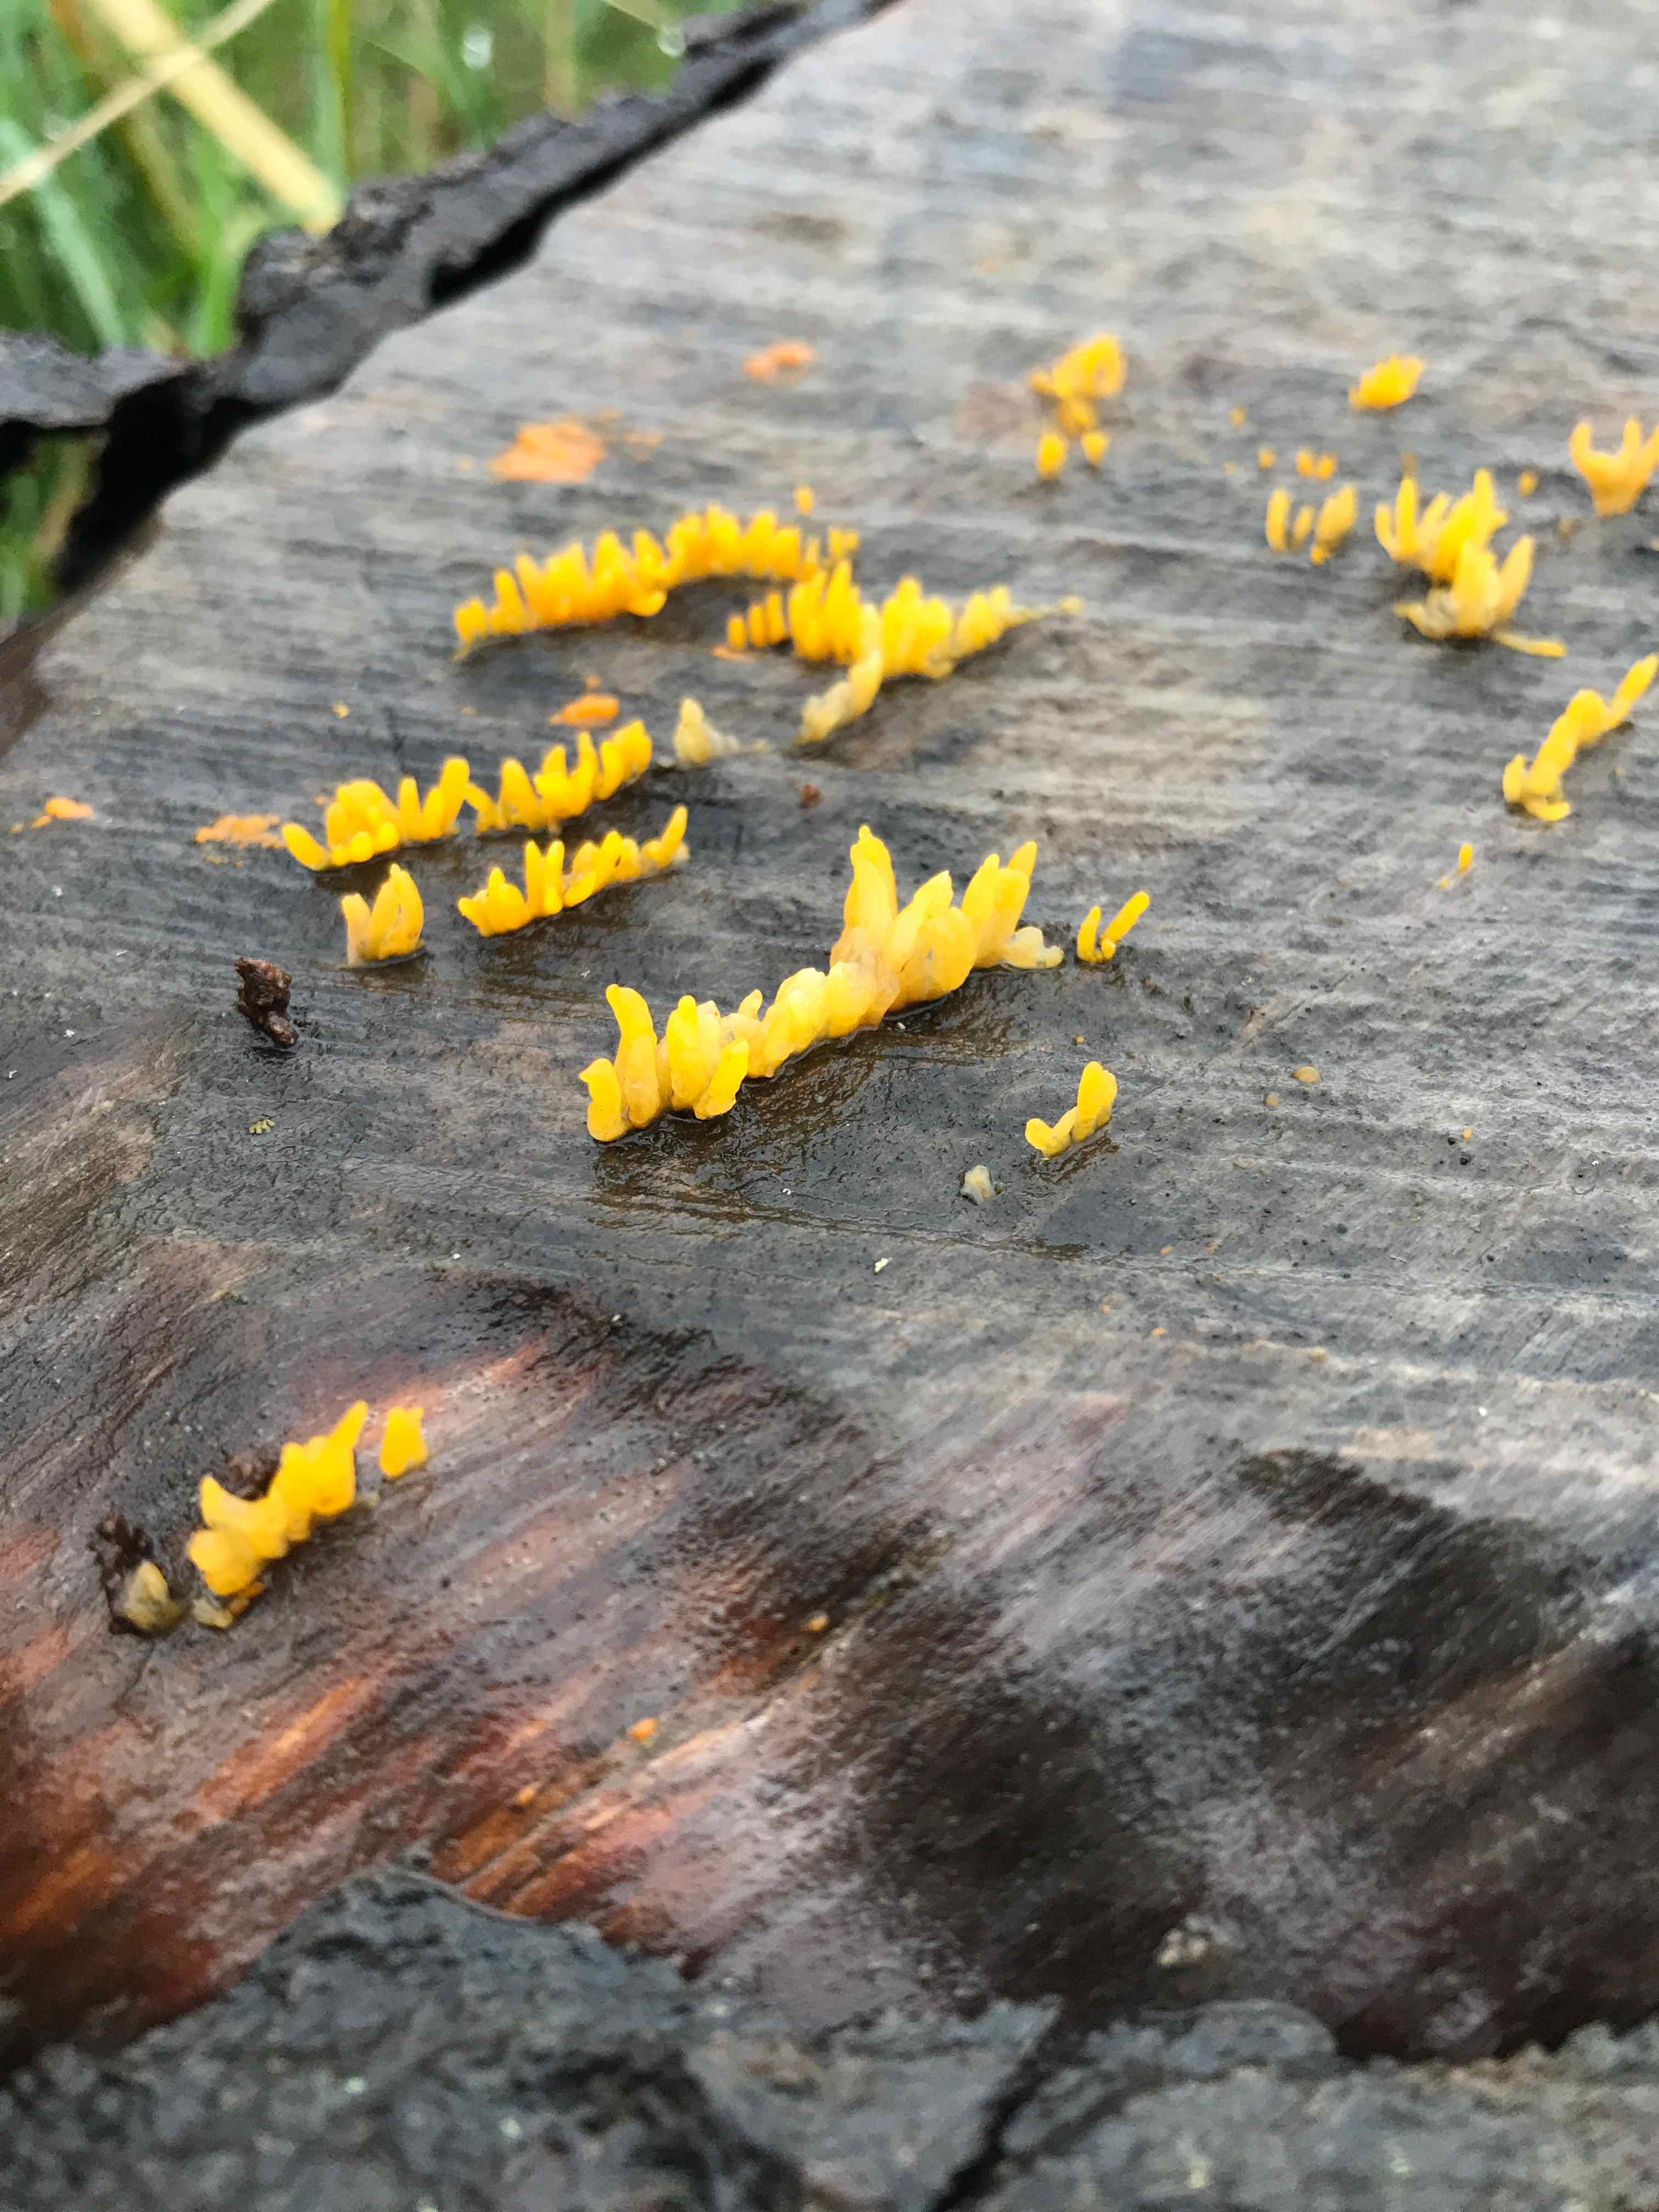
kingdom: Fungi
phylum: Basidiomycota
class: Dacrymycetes
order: Dacrymycetales
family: Dacrymycetaceae
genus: Calocera
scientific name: Calocera cornea
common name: liden guldgaffel
